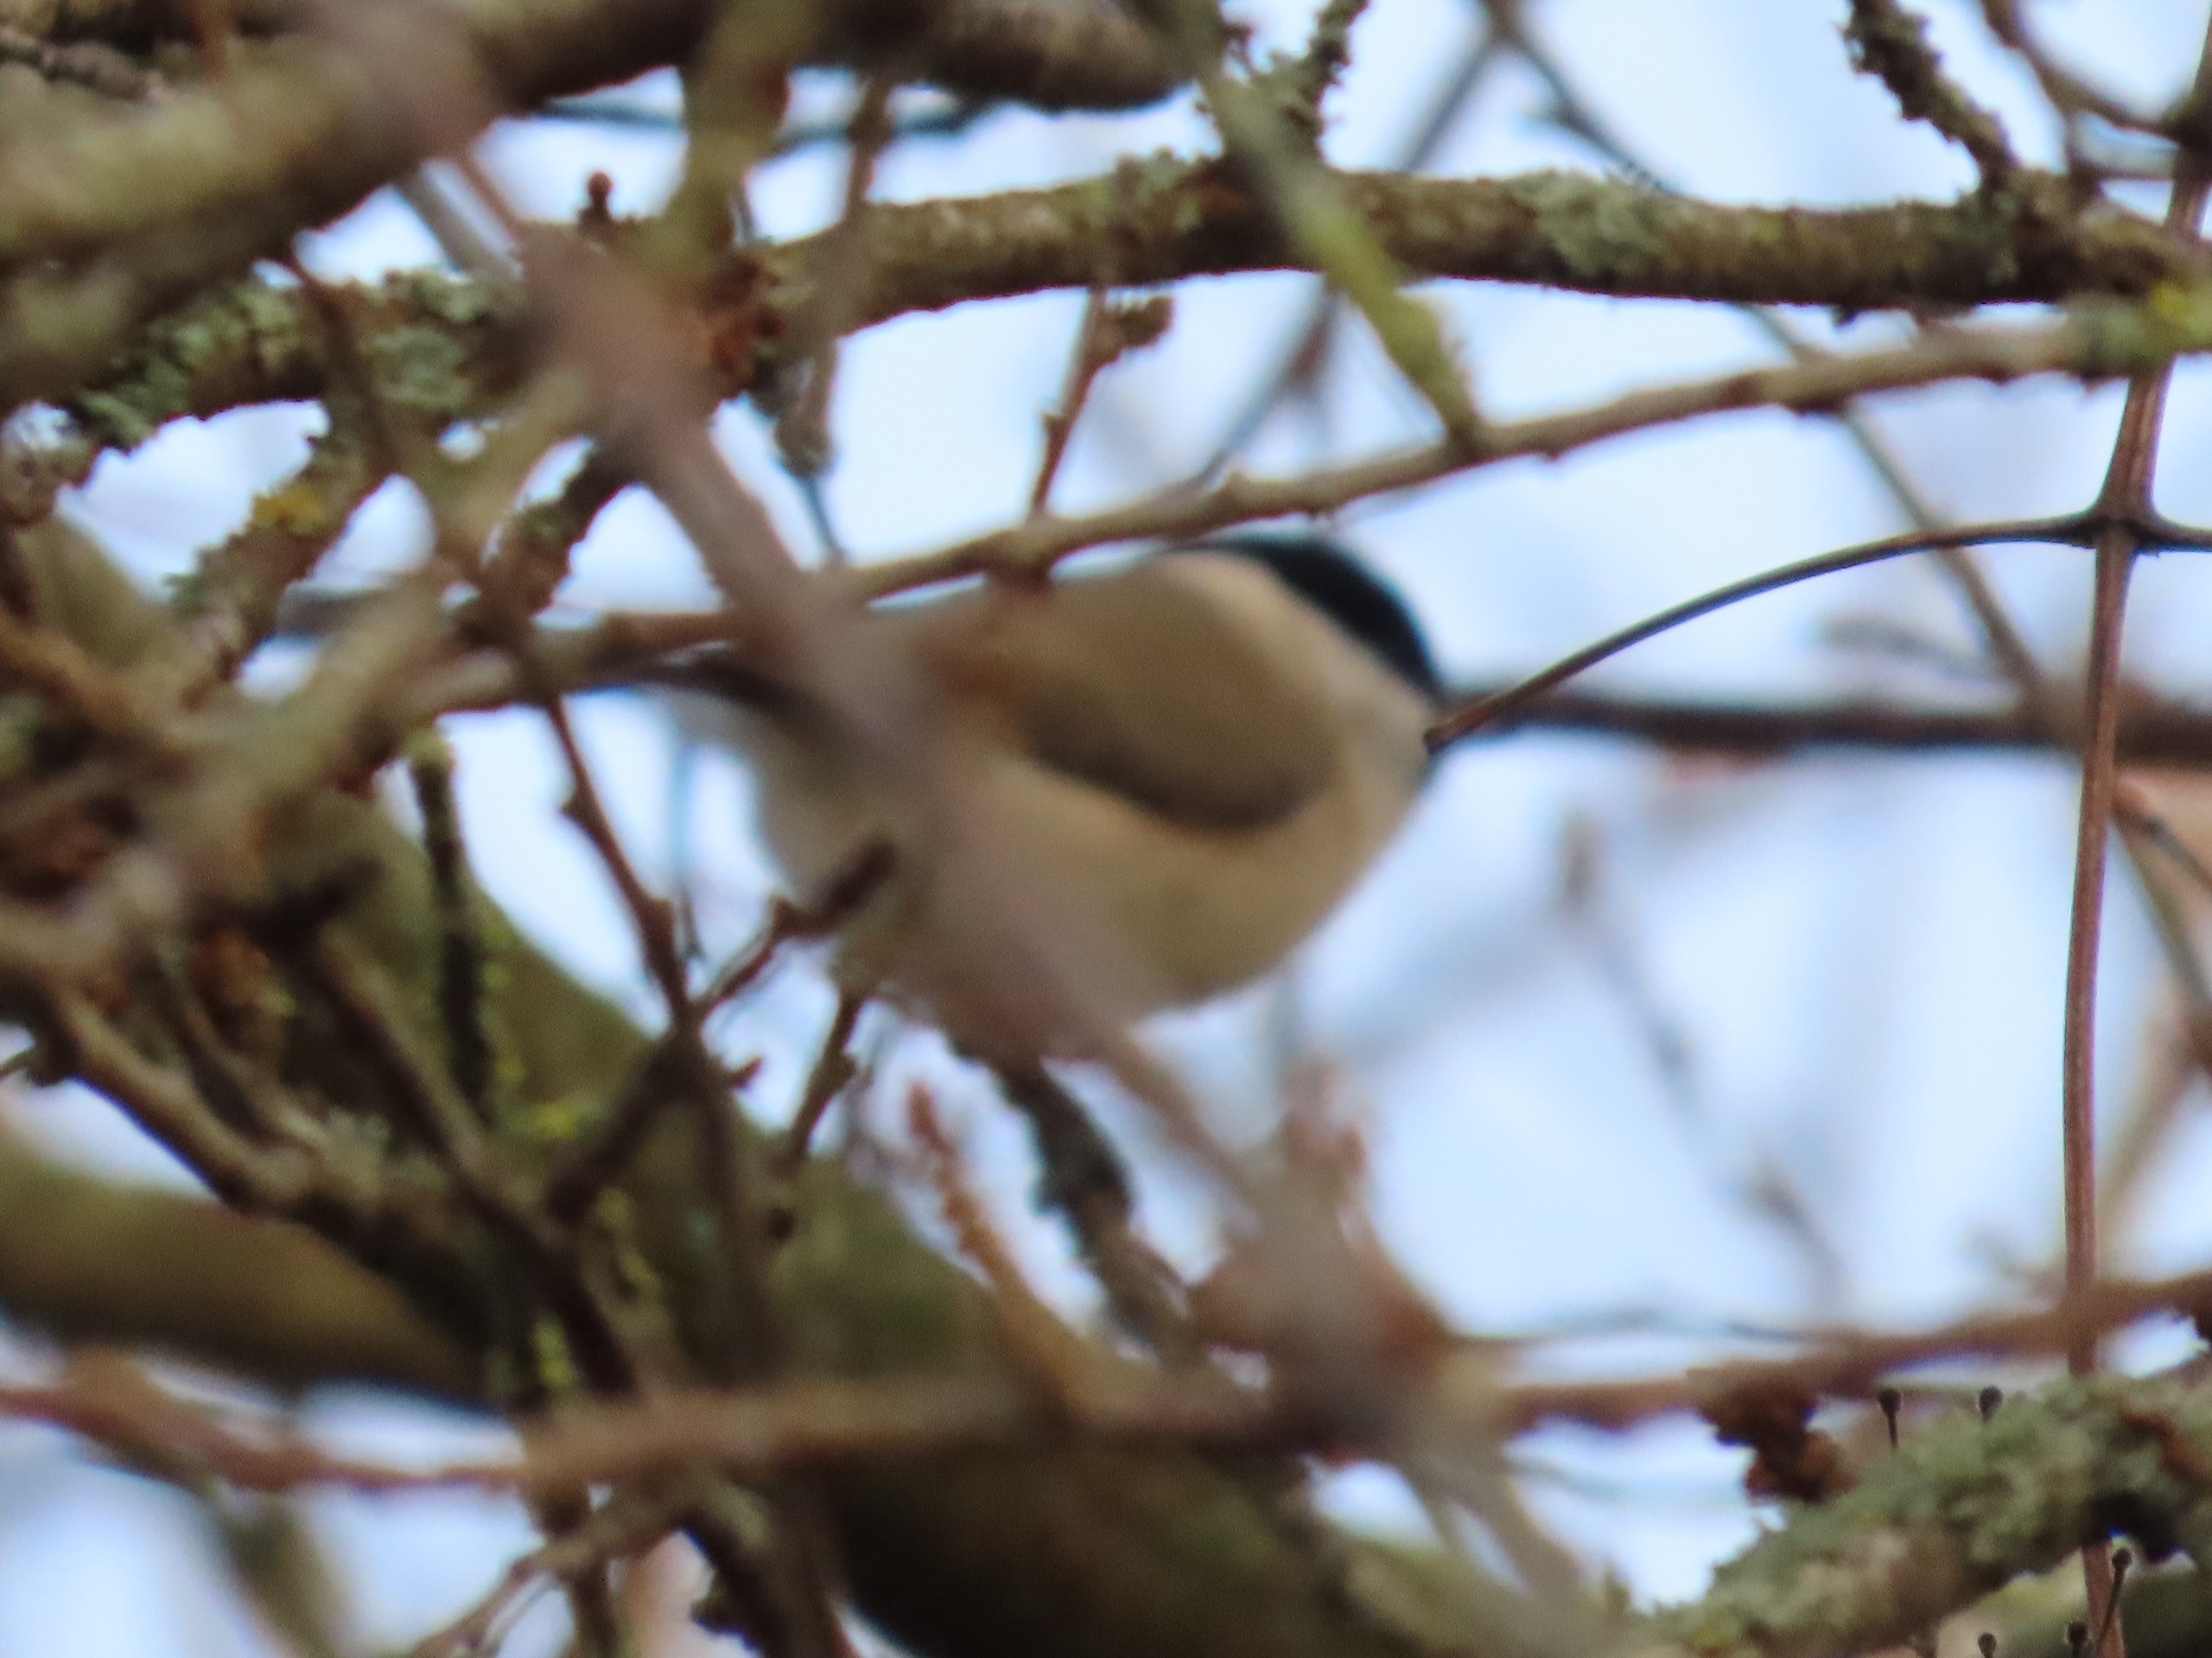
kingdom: Animalia
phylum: Chordata
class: Aves
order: Passeriformes
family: Paridae
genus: Poecile
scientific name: Poecile palustris
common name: Sumpmejse
